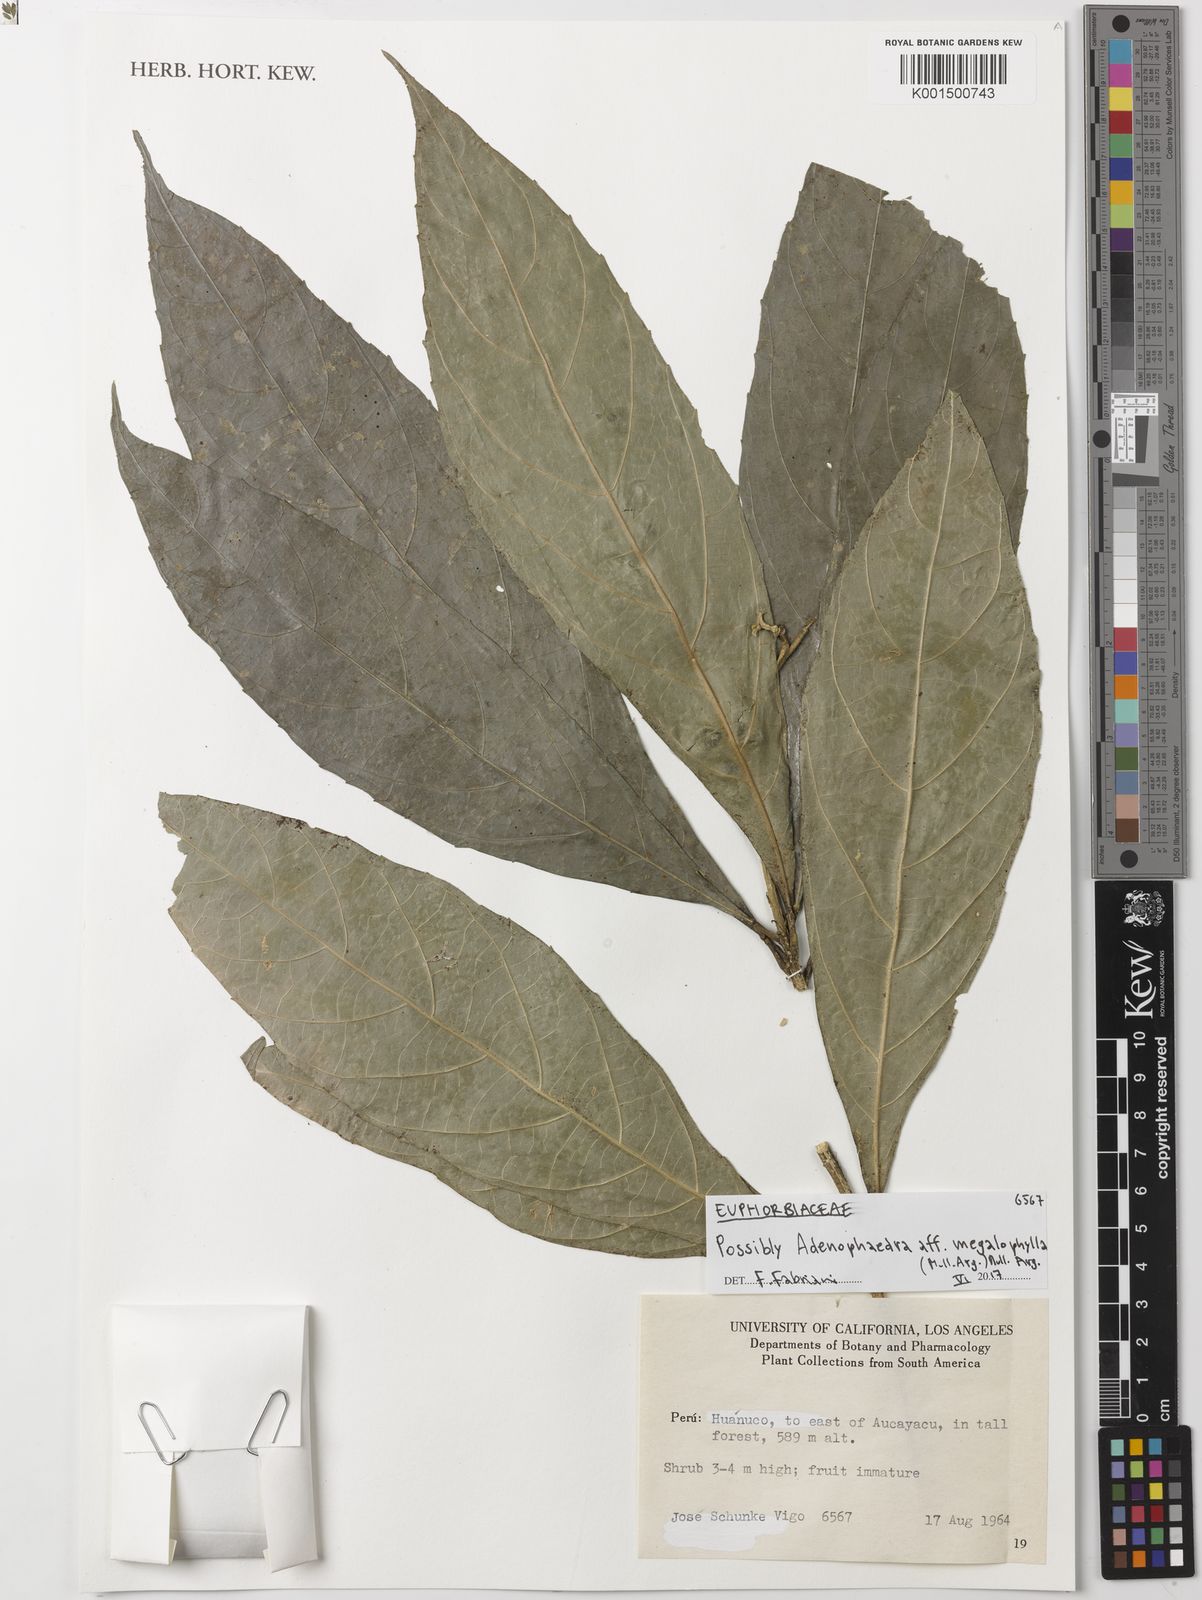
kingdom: Plantae
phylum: Tracheophyta
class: Magnoliopsida
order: Malpighiales
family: Euphorbiaceae
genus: Adenophaedra
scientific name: Adenophaedra megalophylla
